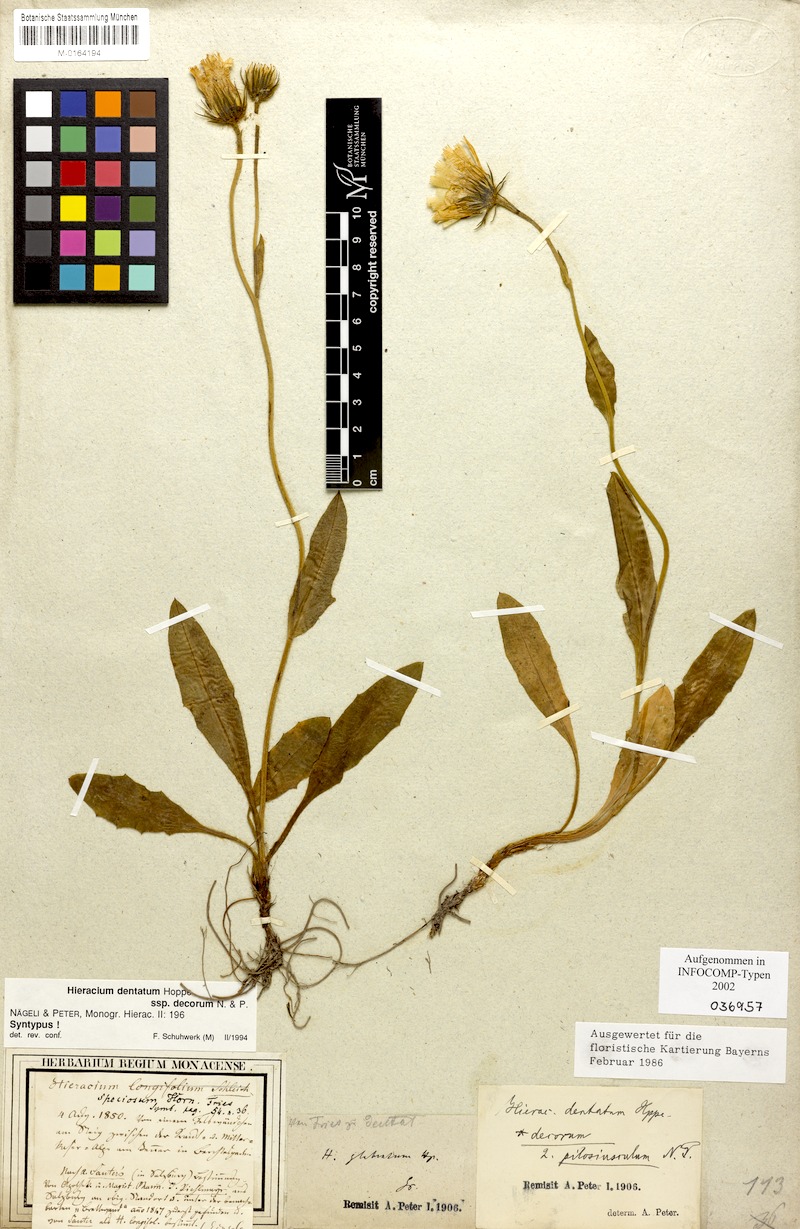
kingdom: Plantae
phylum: Tracheophyta
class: Magnoliopsida
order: Asterales
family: Asteraceae
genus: Hieracium
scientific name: Hieracium dentatum
